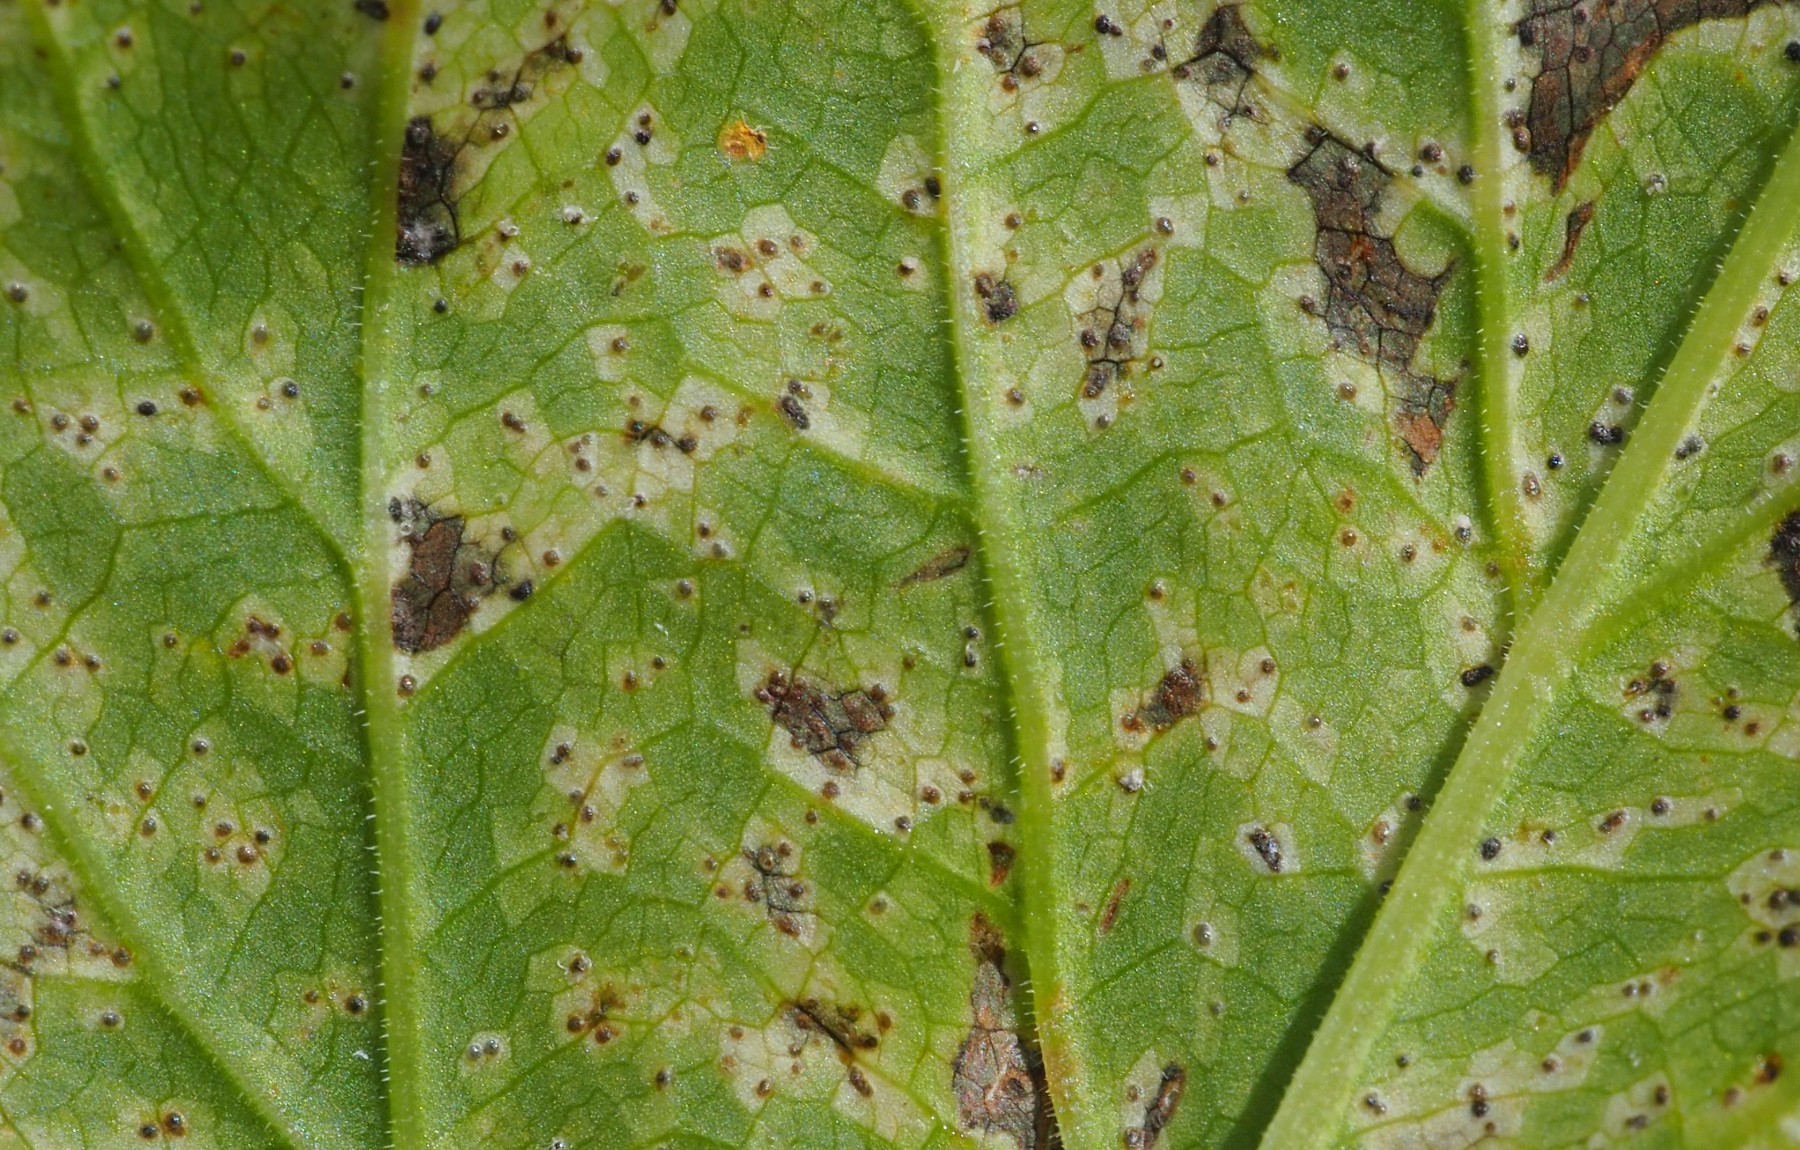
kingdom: Fungi
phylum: Ascomycota
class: Dothideomycetes
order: Mycosphaerellales
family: Mycosphaerellaceae
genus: Mycosphaerella
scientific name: Mycosphaerella podagrariae
